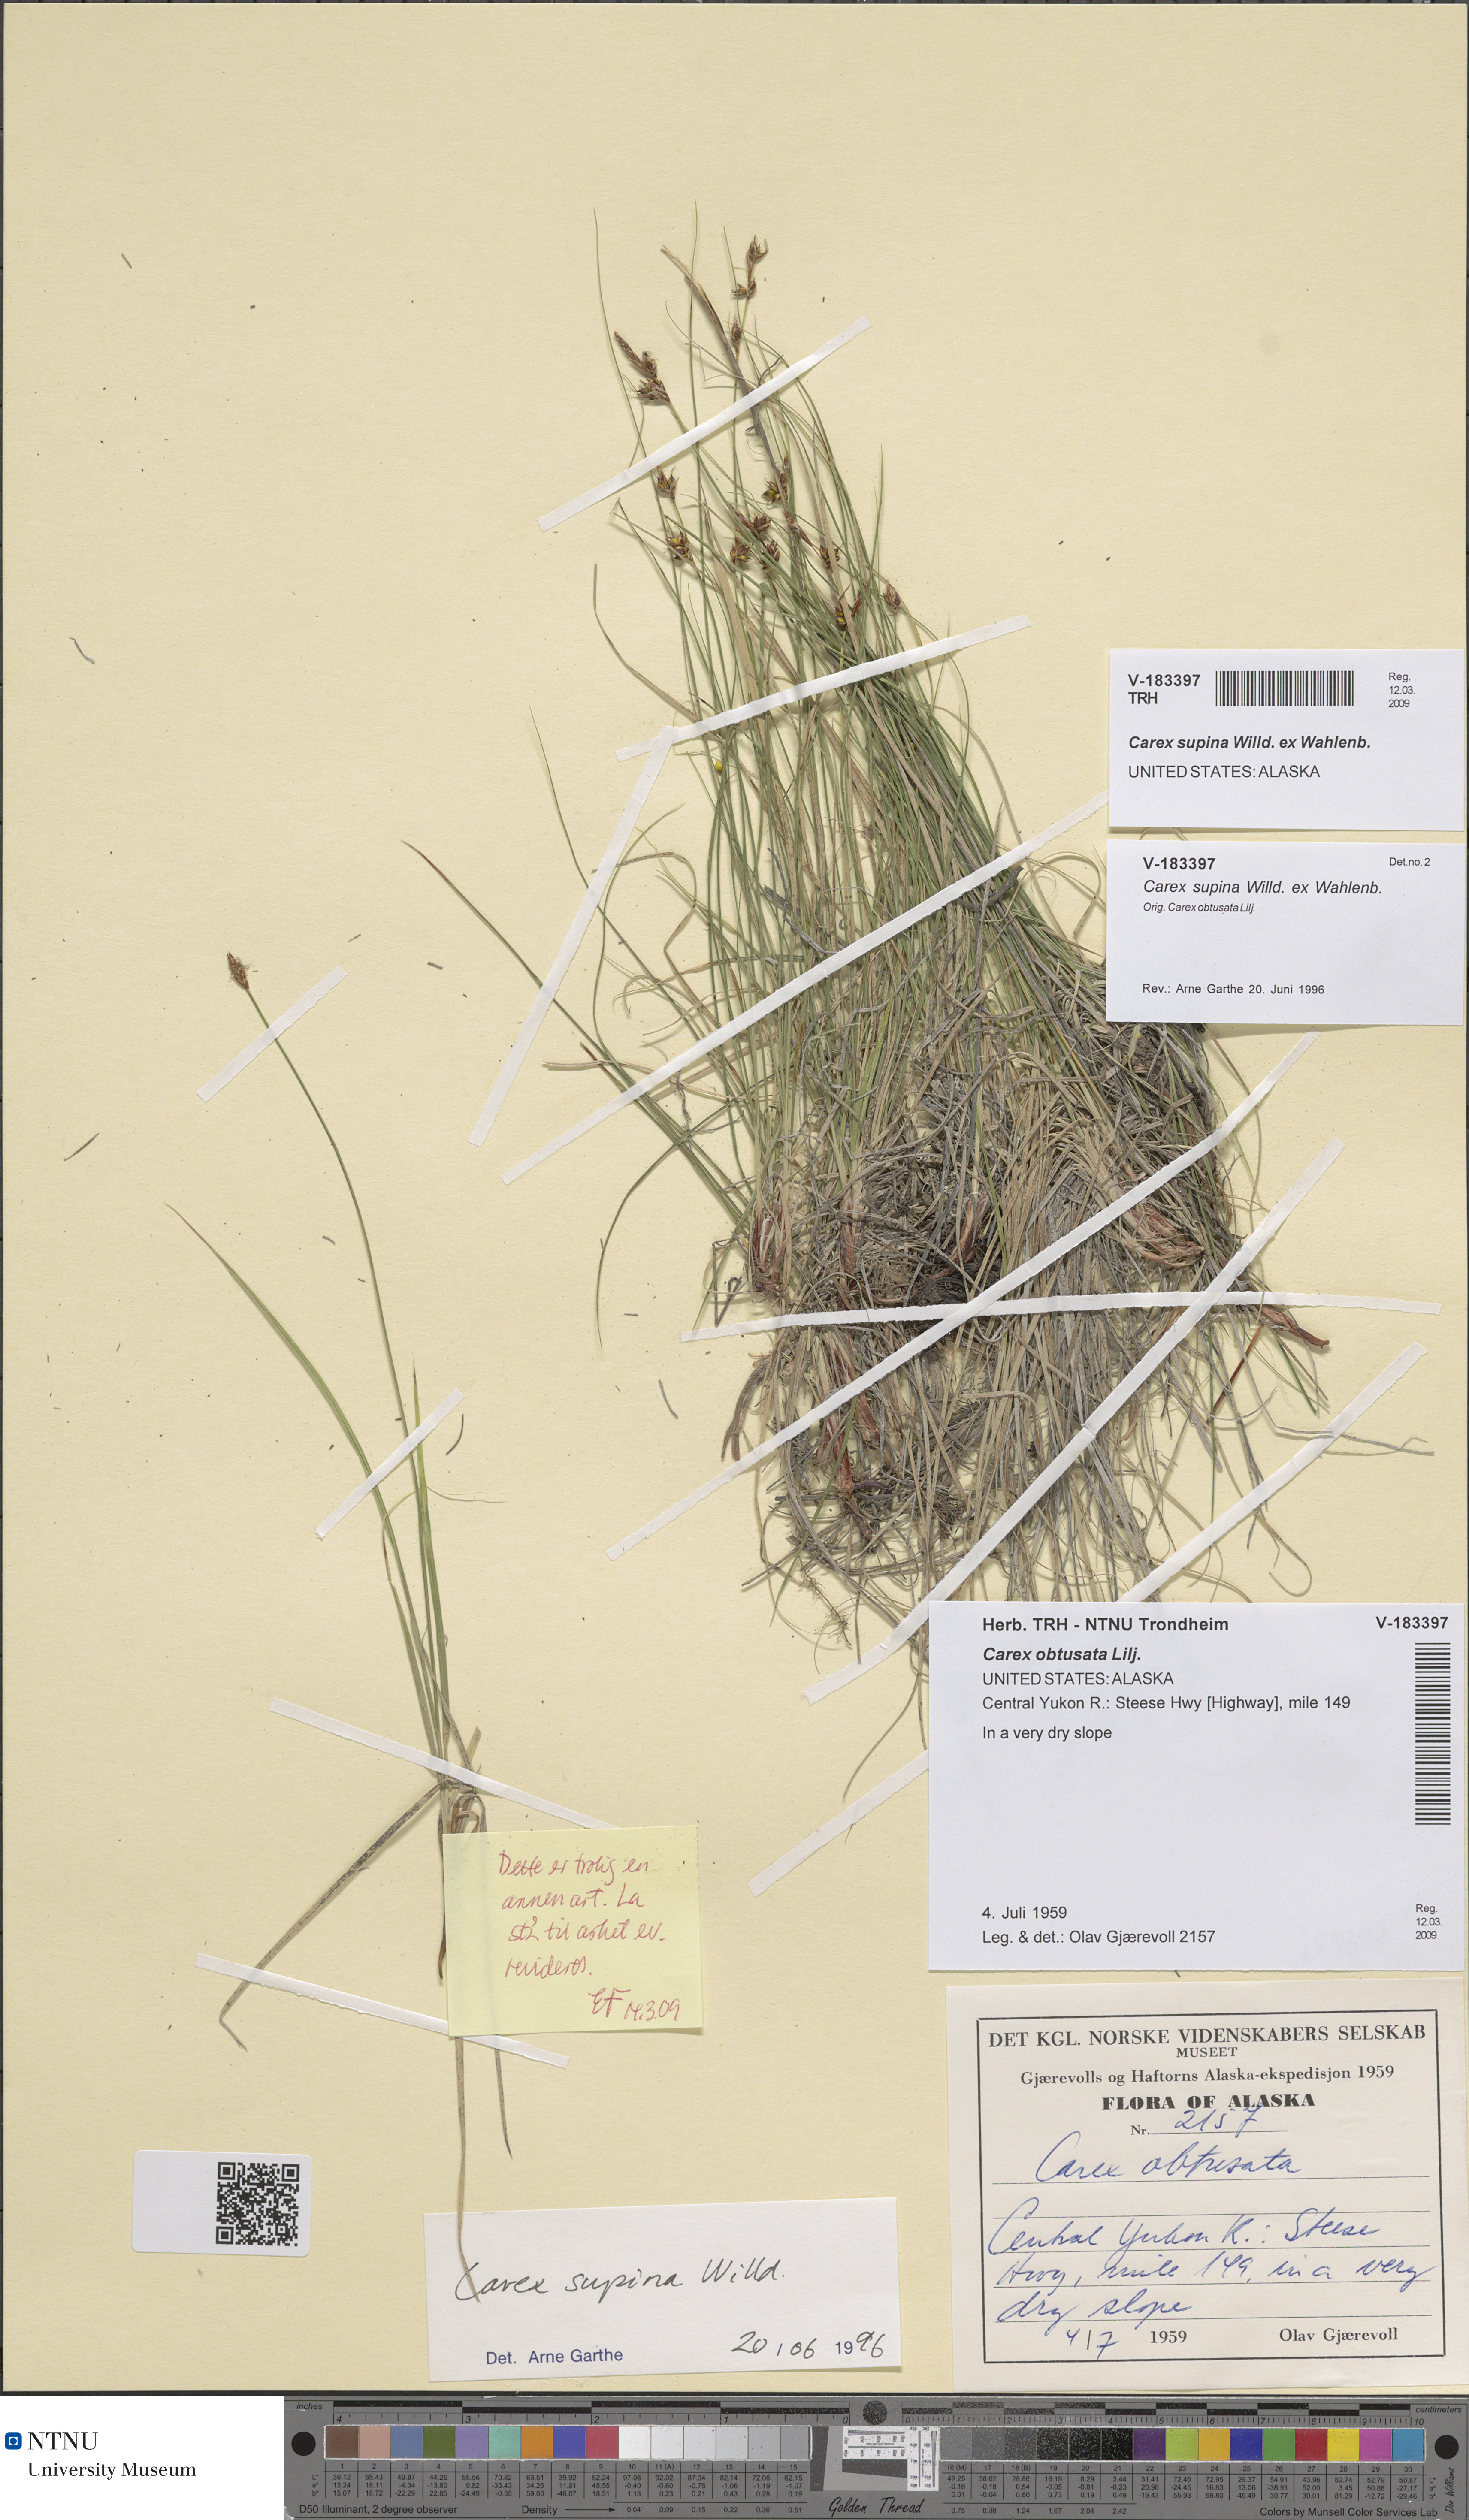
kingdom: Plantae
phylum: Tracheophyta
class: Liliopsida
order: Poales
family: Cyperaceae
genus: Carex
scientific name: Carex supina
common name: Lying-back sedge
